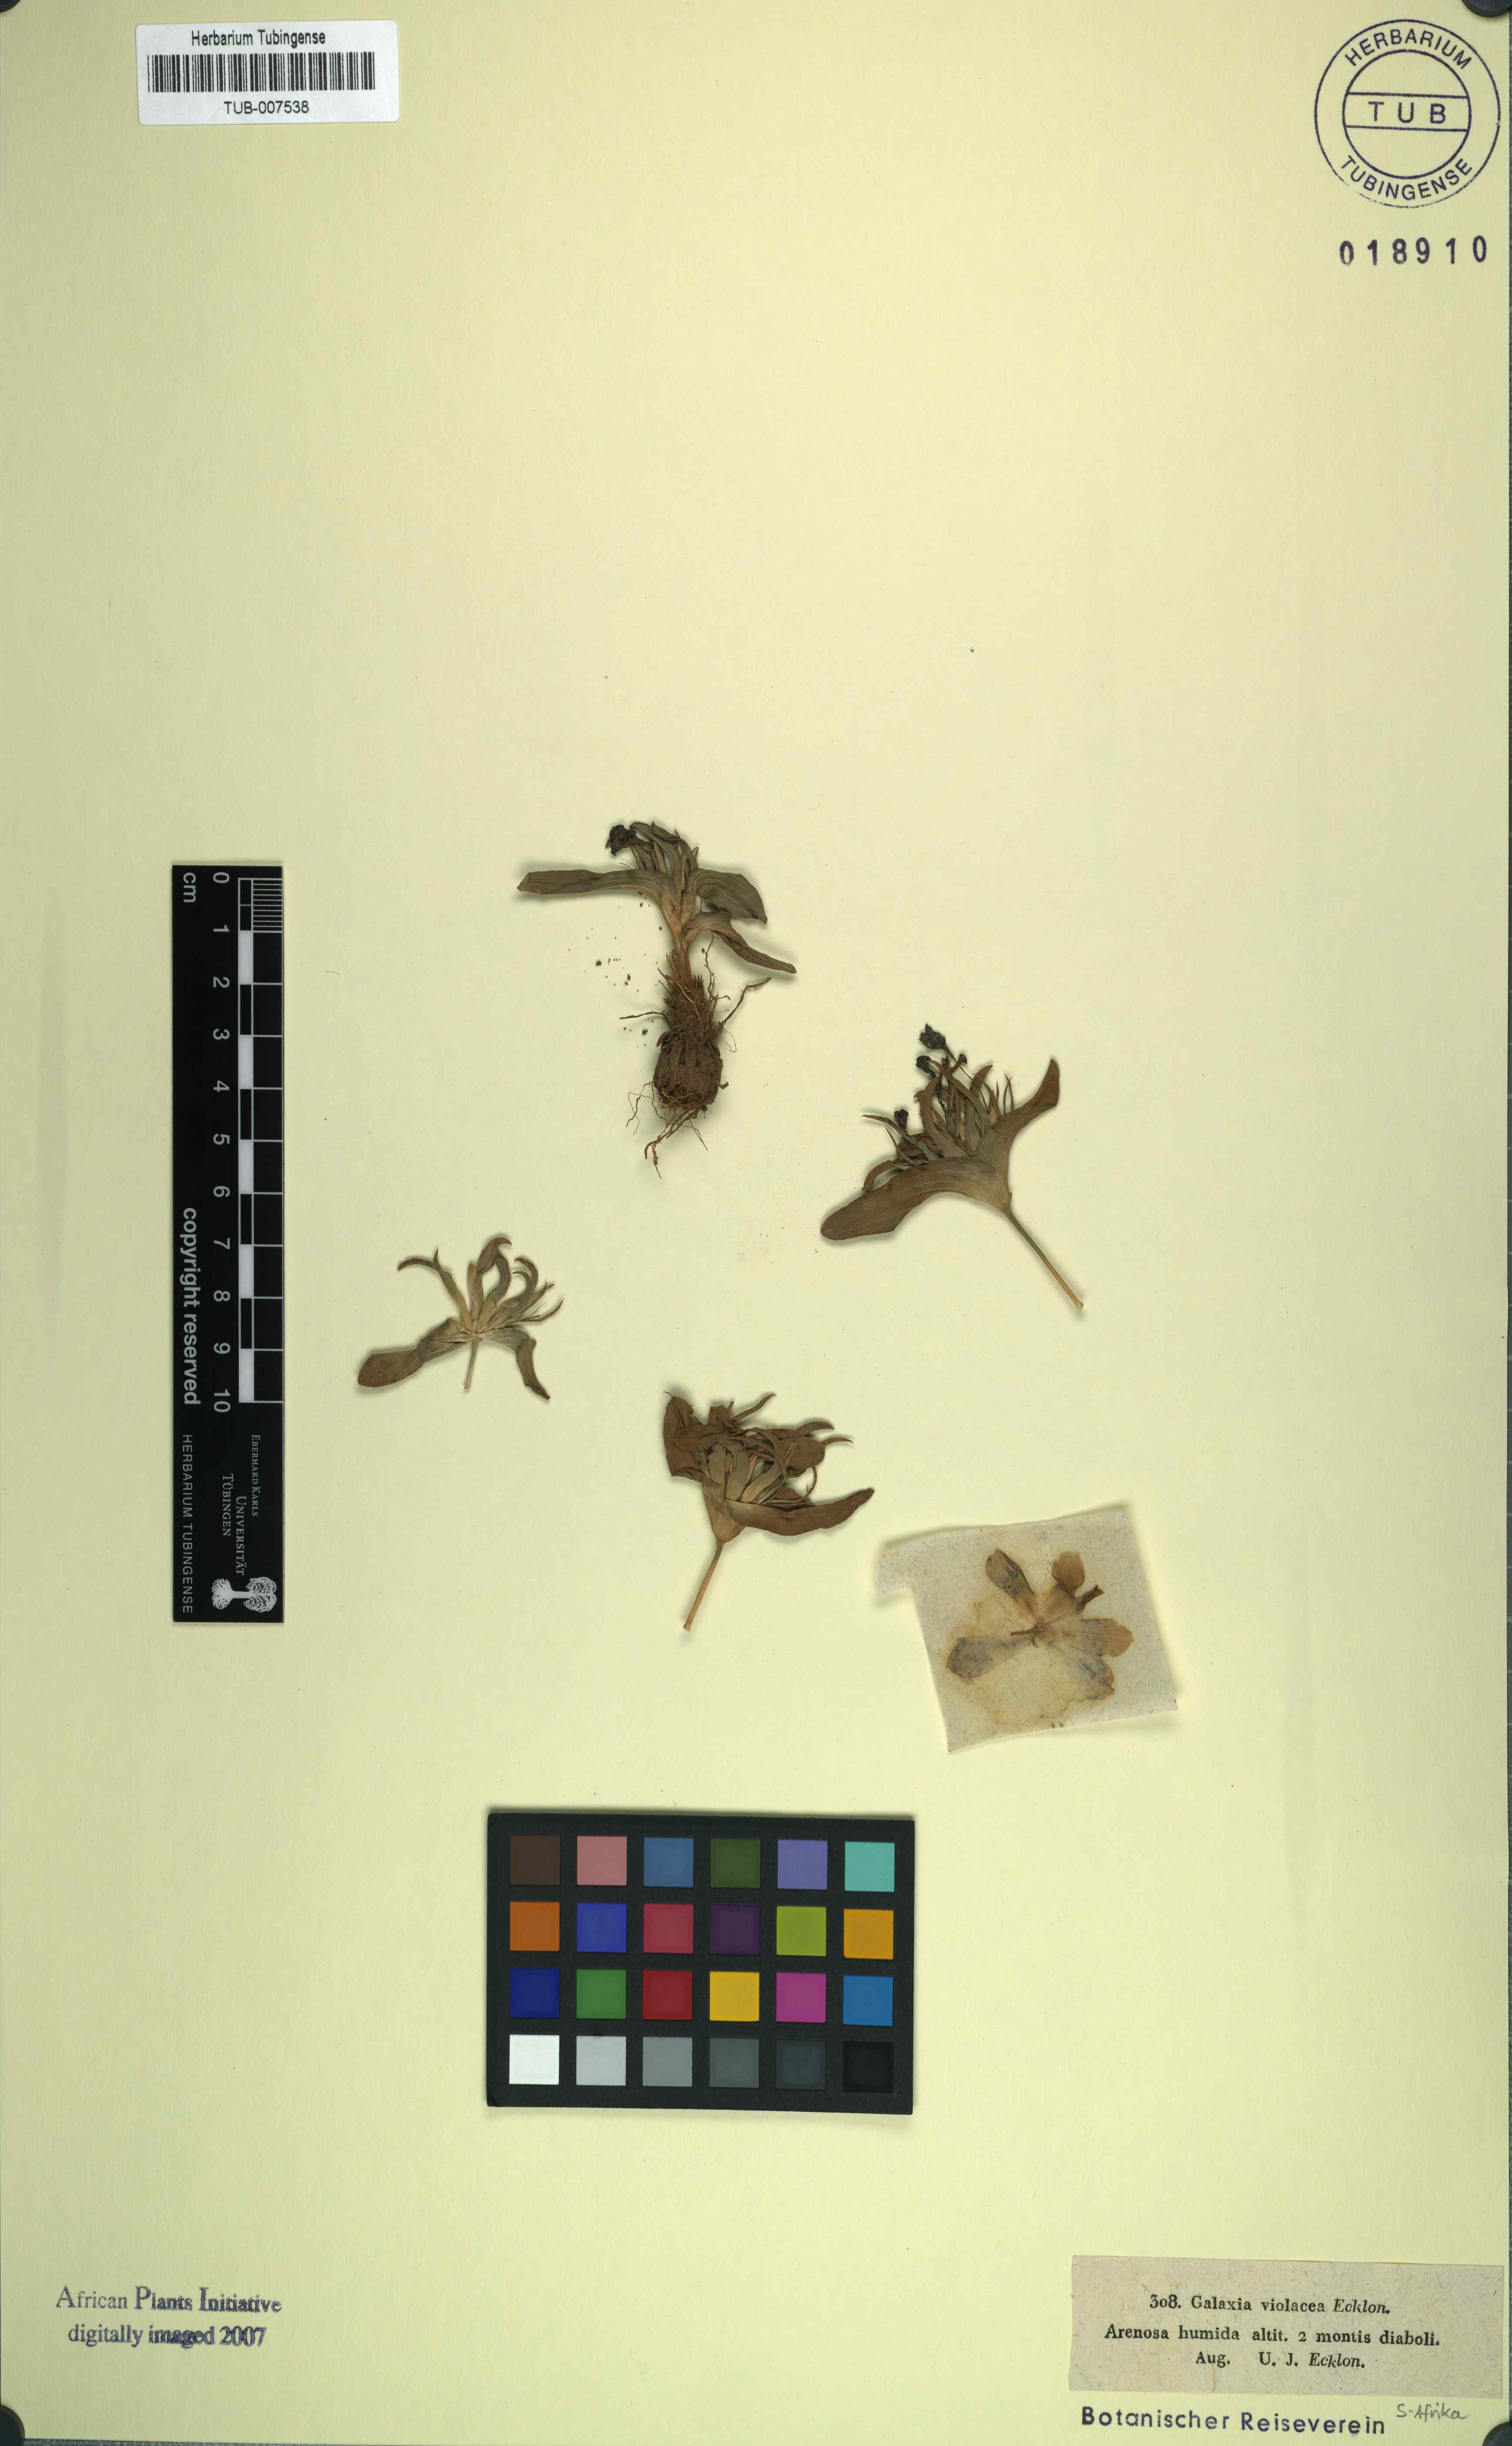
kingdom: Plantae
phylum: Tracheophyta
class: Liliopsida
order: Asparagales
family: Iridaceae
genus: Moraea
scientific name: Moraea galaxia
